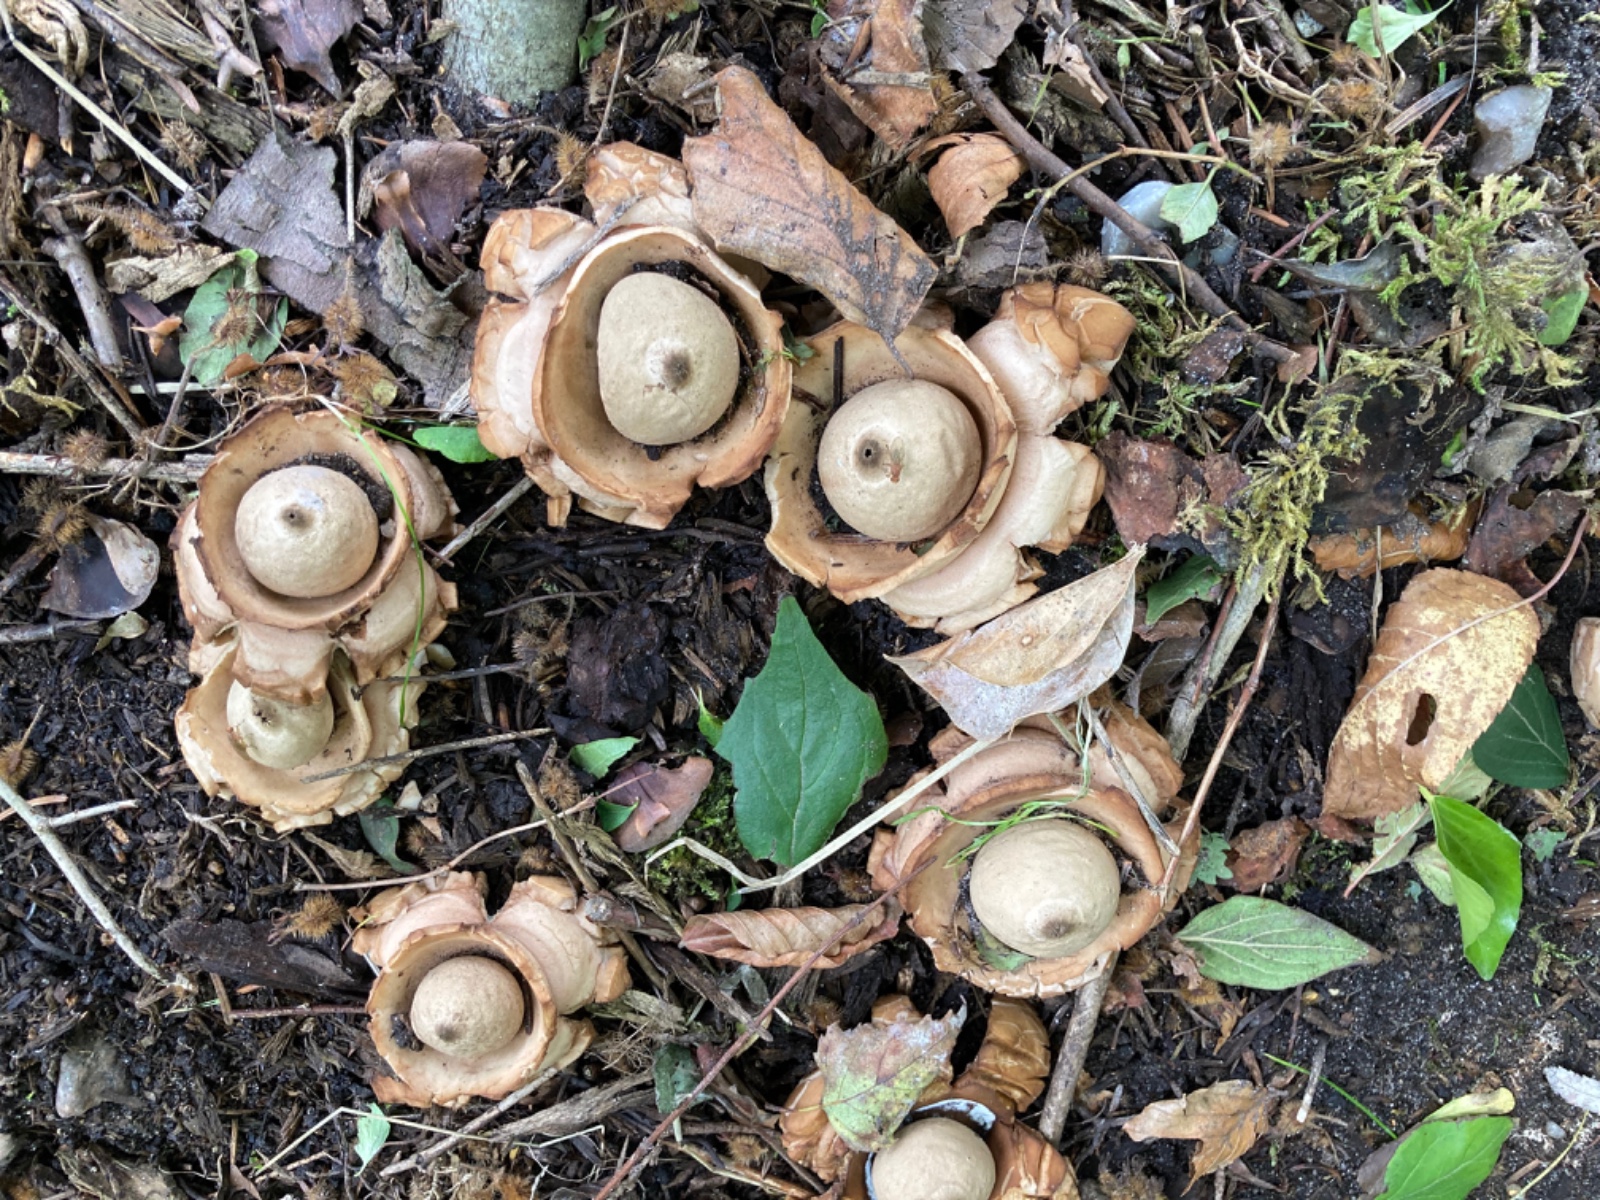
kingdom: Fungi
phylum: Basidiomycota
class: Agaricomycetes
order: Geastrales
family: Geastraceae
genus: Geastrum
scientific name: Geastrum michelianum
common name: kødet stjernebold
